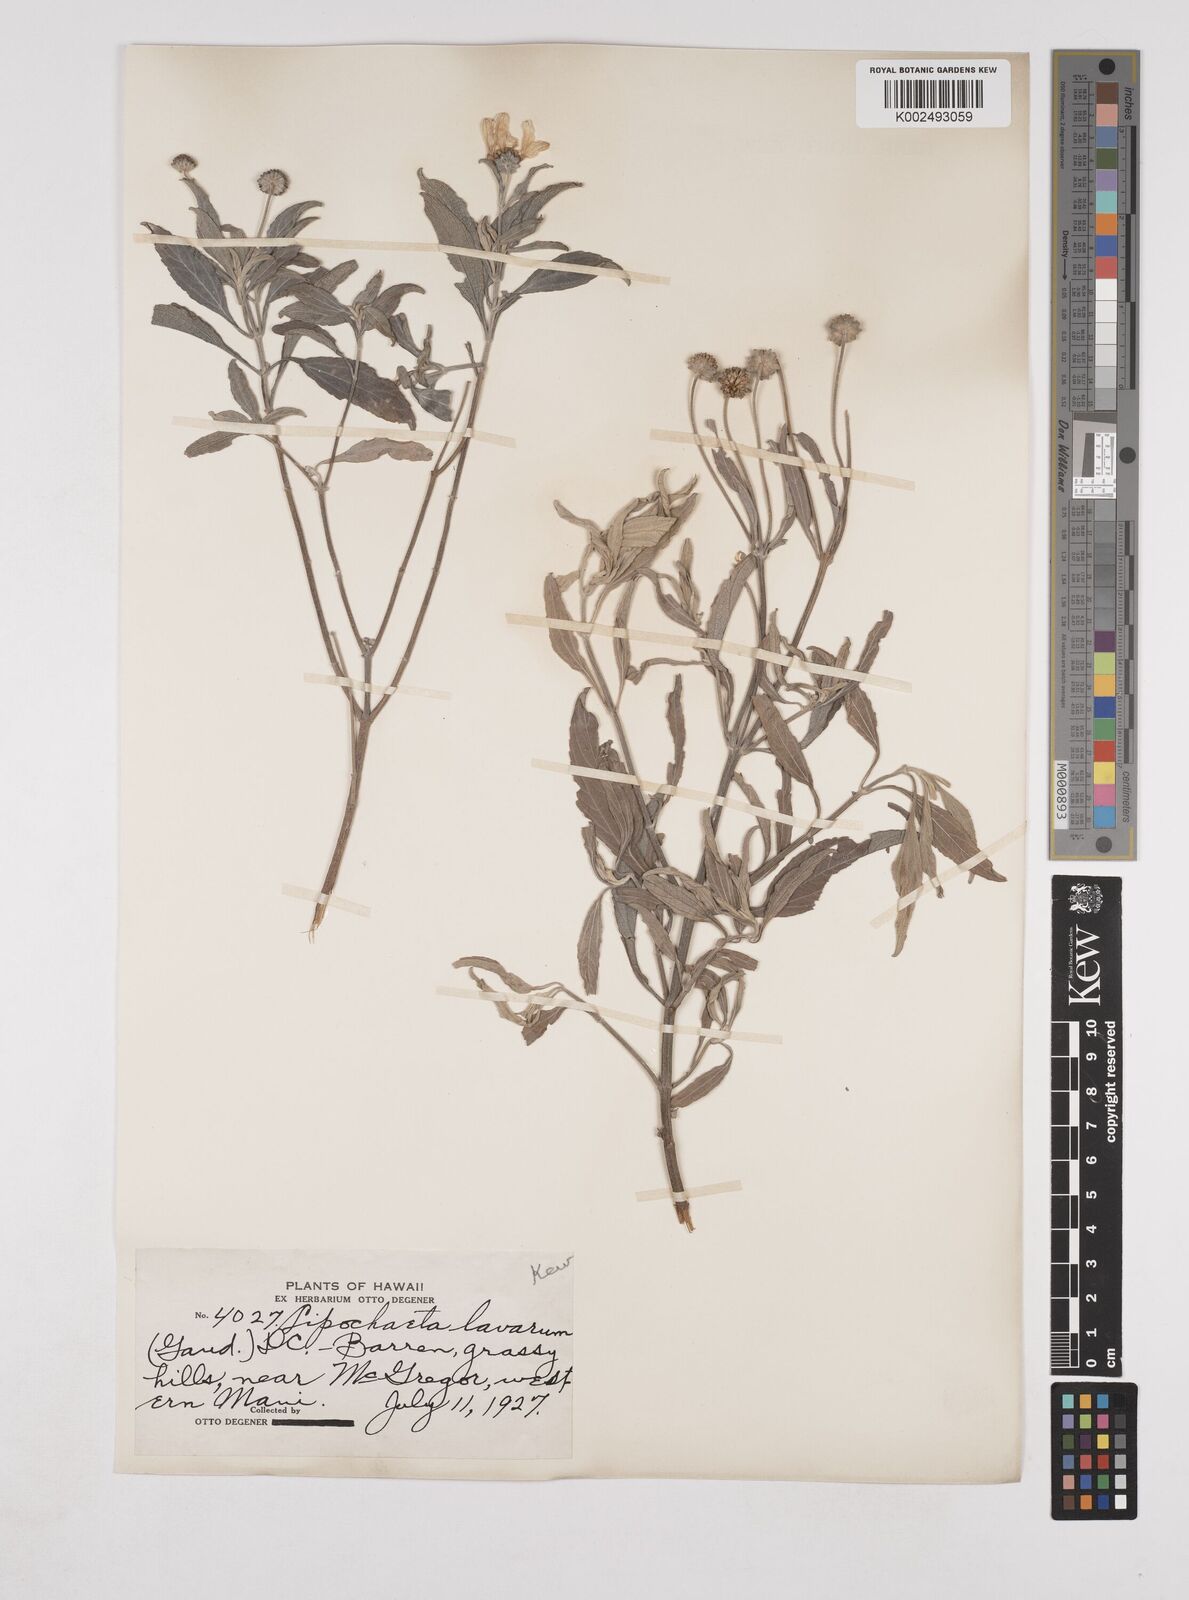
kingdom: Plantae
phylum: Tracheophyta
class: Magnoliopsida
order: Asterales
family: Asteraceae
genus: Lipochaeta
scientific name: Lipochaeta lavarum
